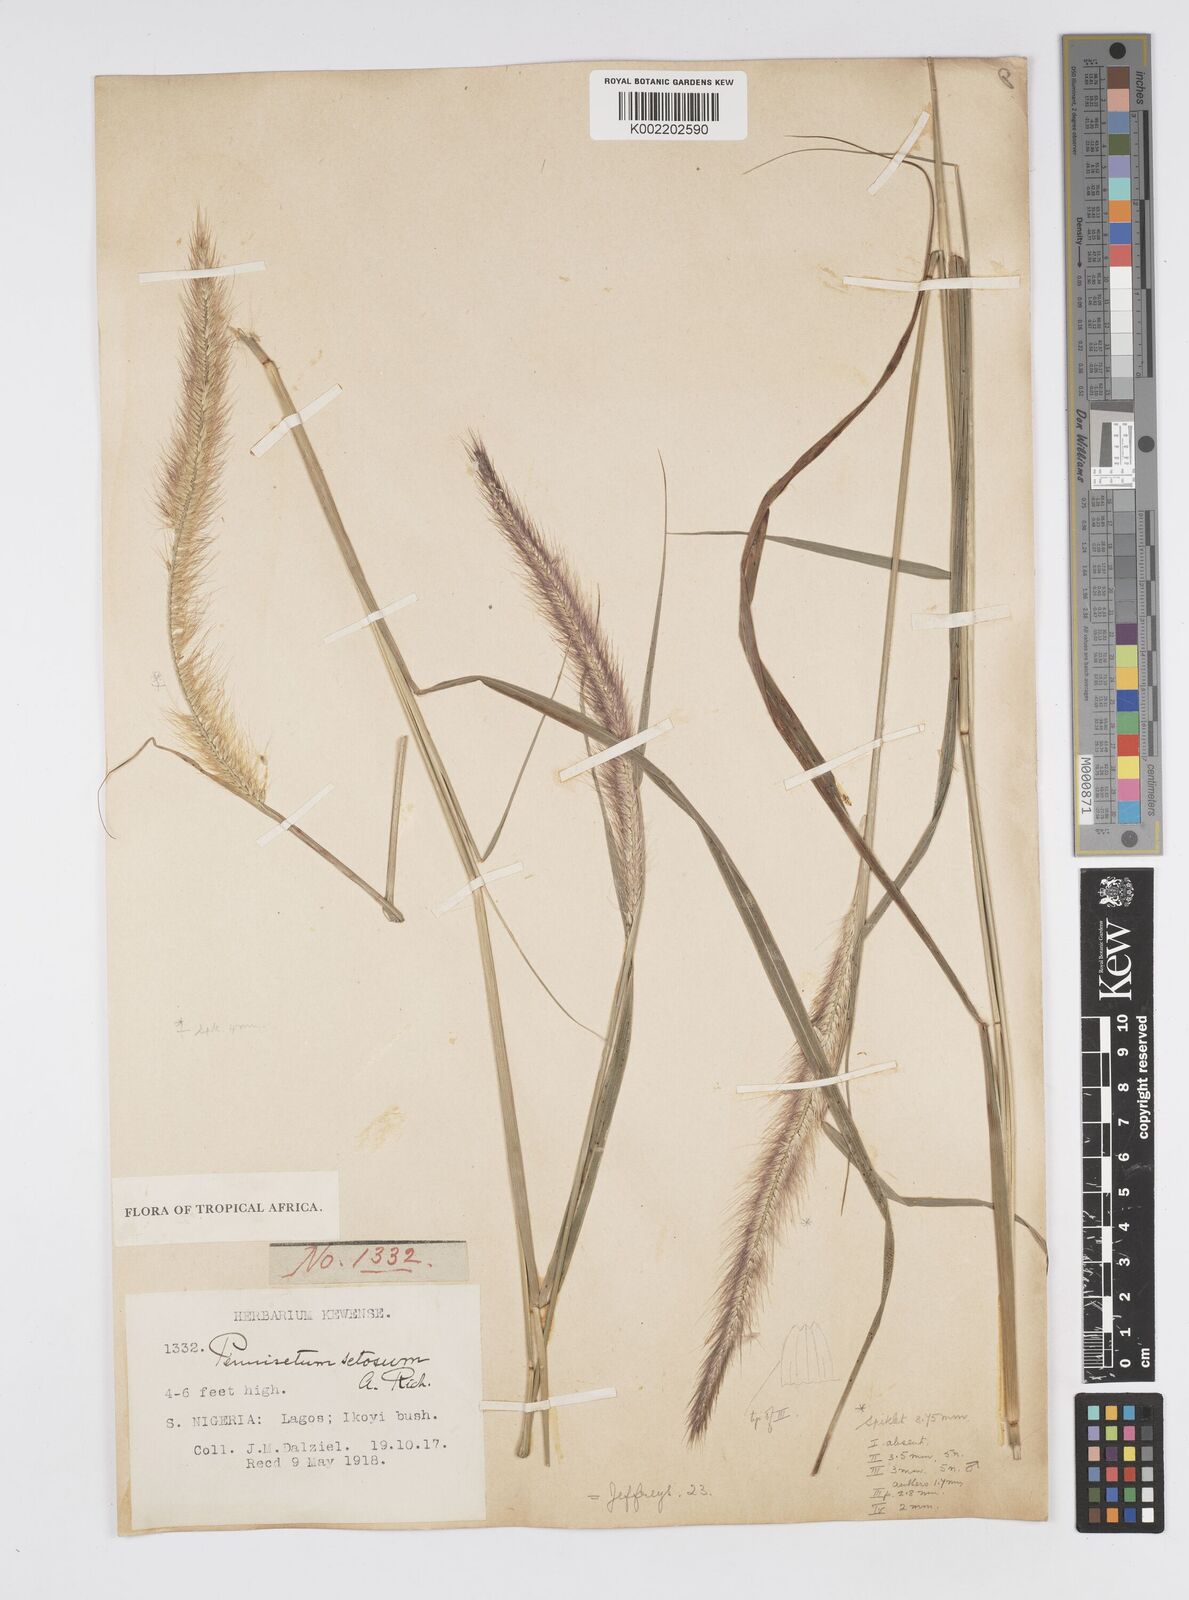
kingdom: Plantae
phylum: Tracheophyta
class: Liliopsida
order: Poales
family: Poaceae
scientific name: Poaceae
